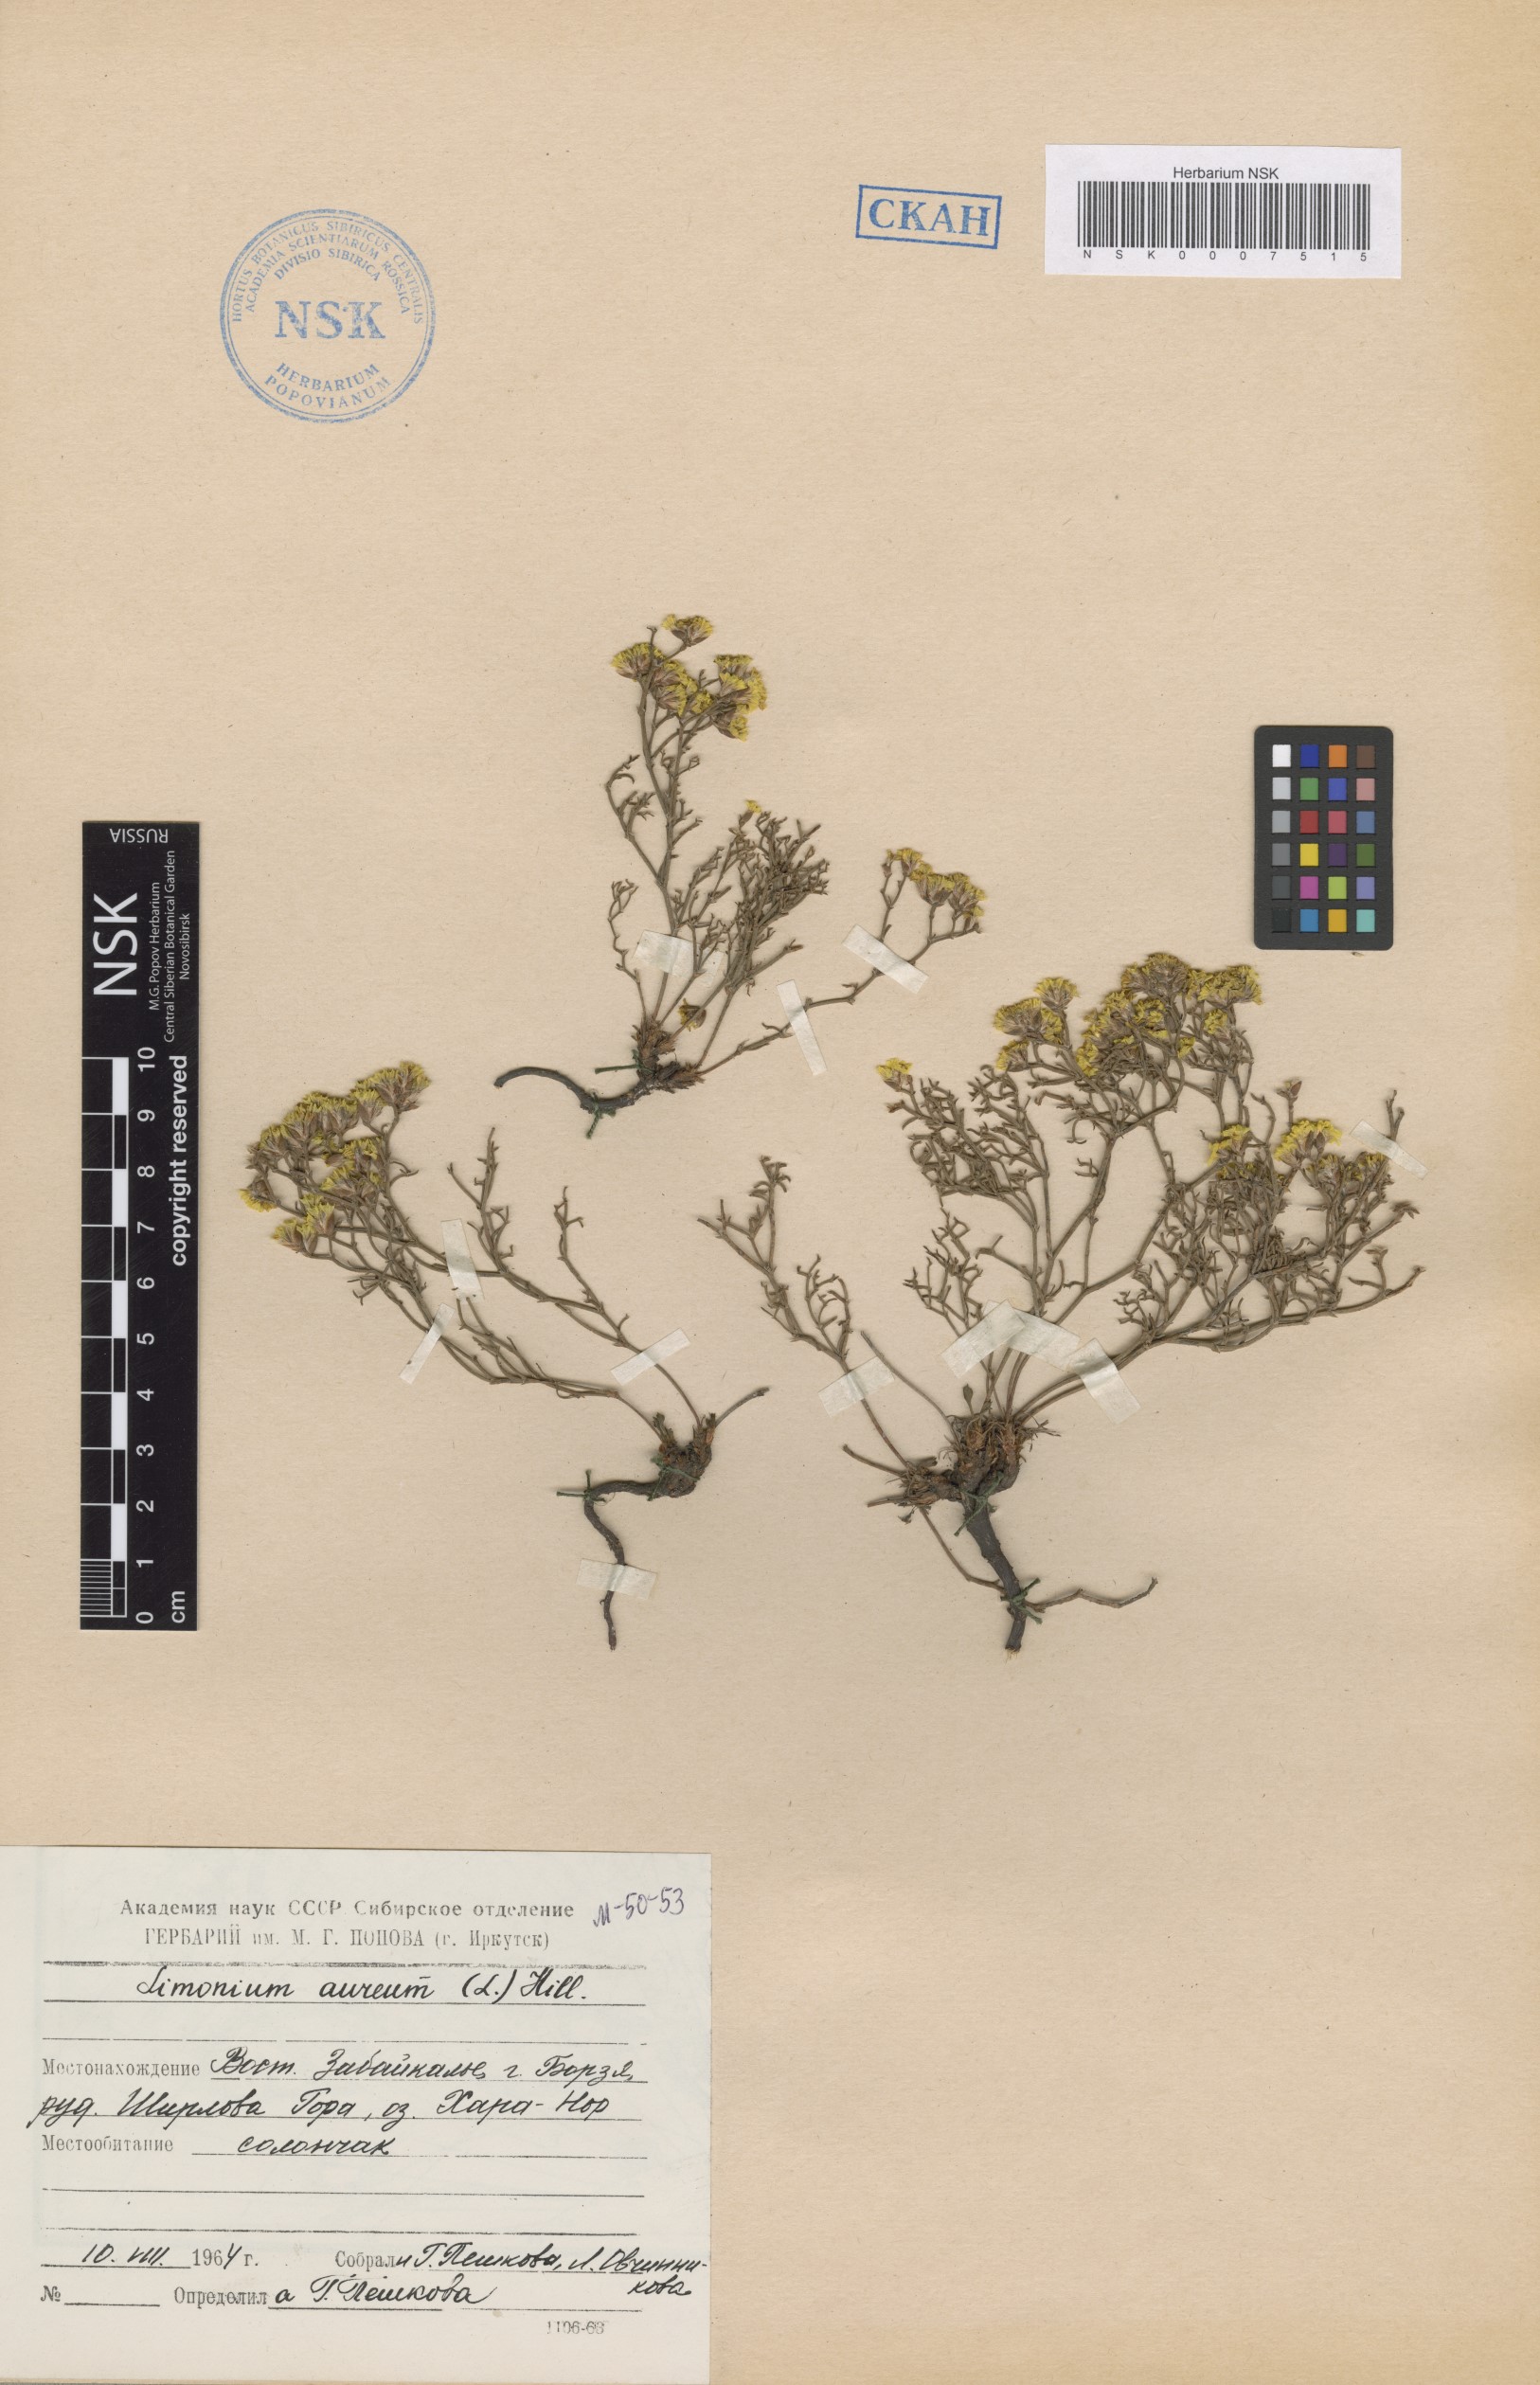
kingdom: Plantae
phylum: Tracheophyta
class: Magnoliopsida
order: Caryophyllales
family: Plumbaginaceae
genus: Limonium
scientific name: Limonium aureum
